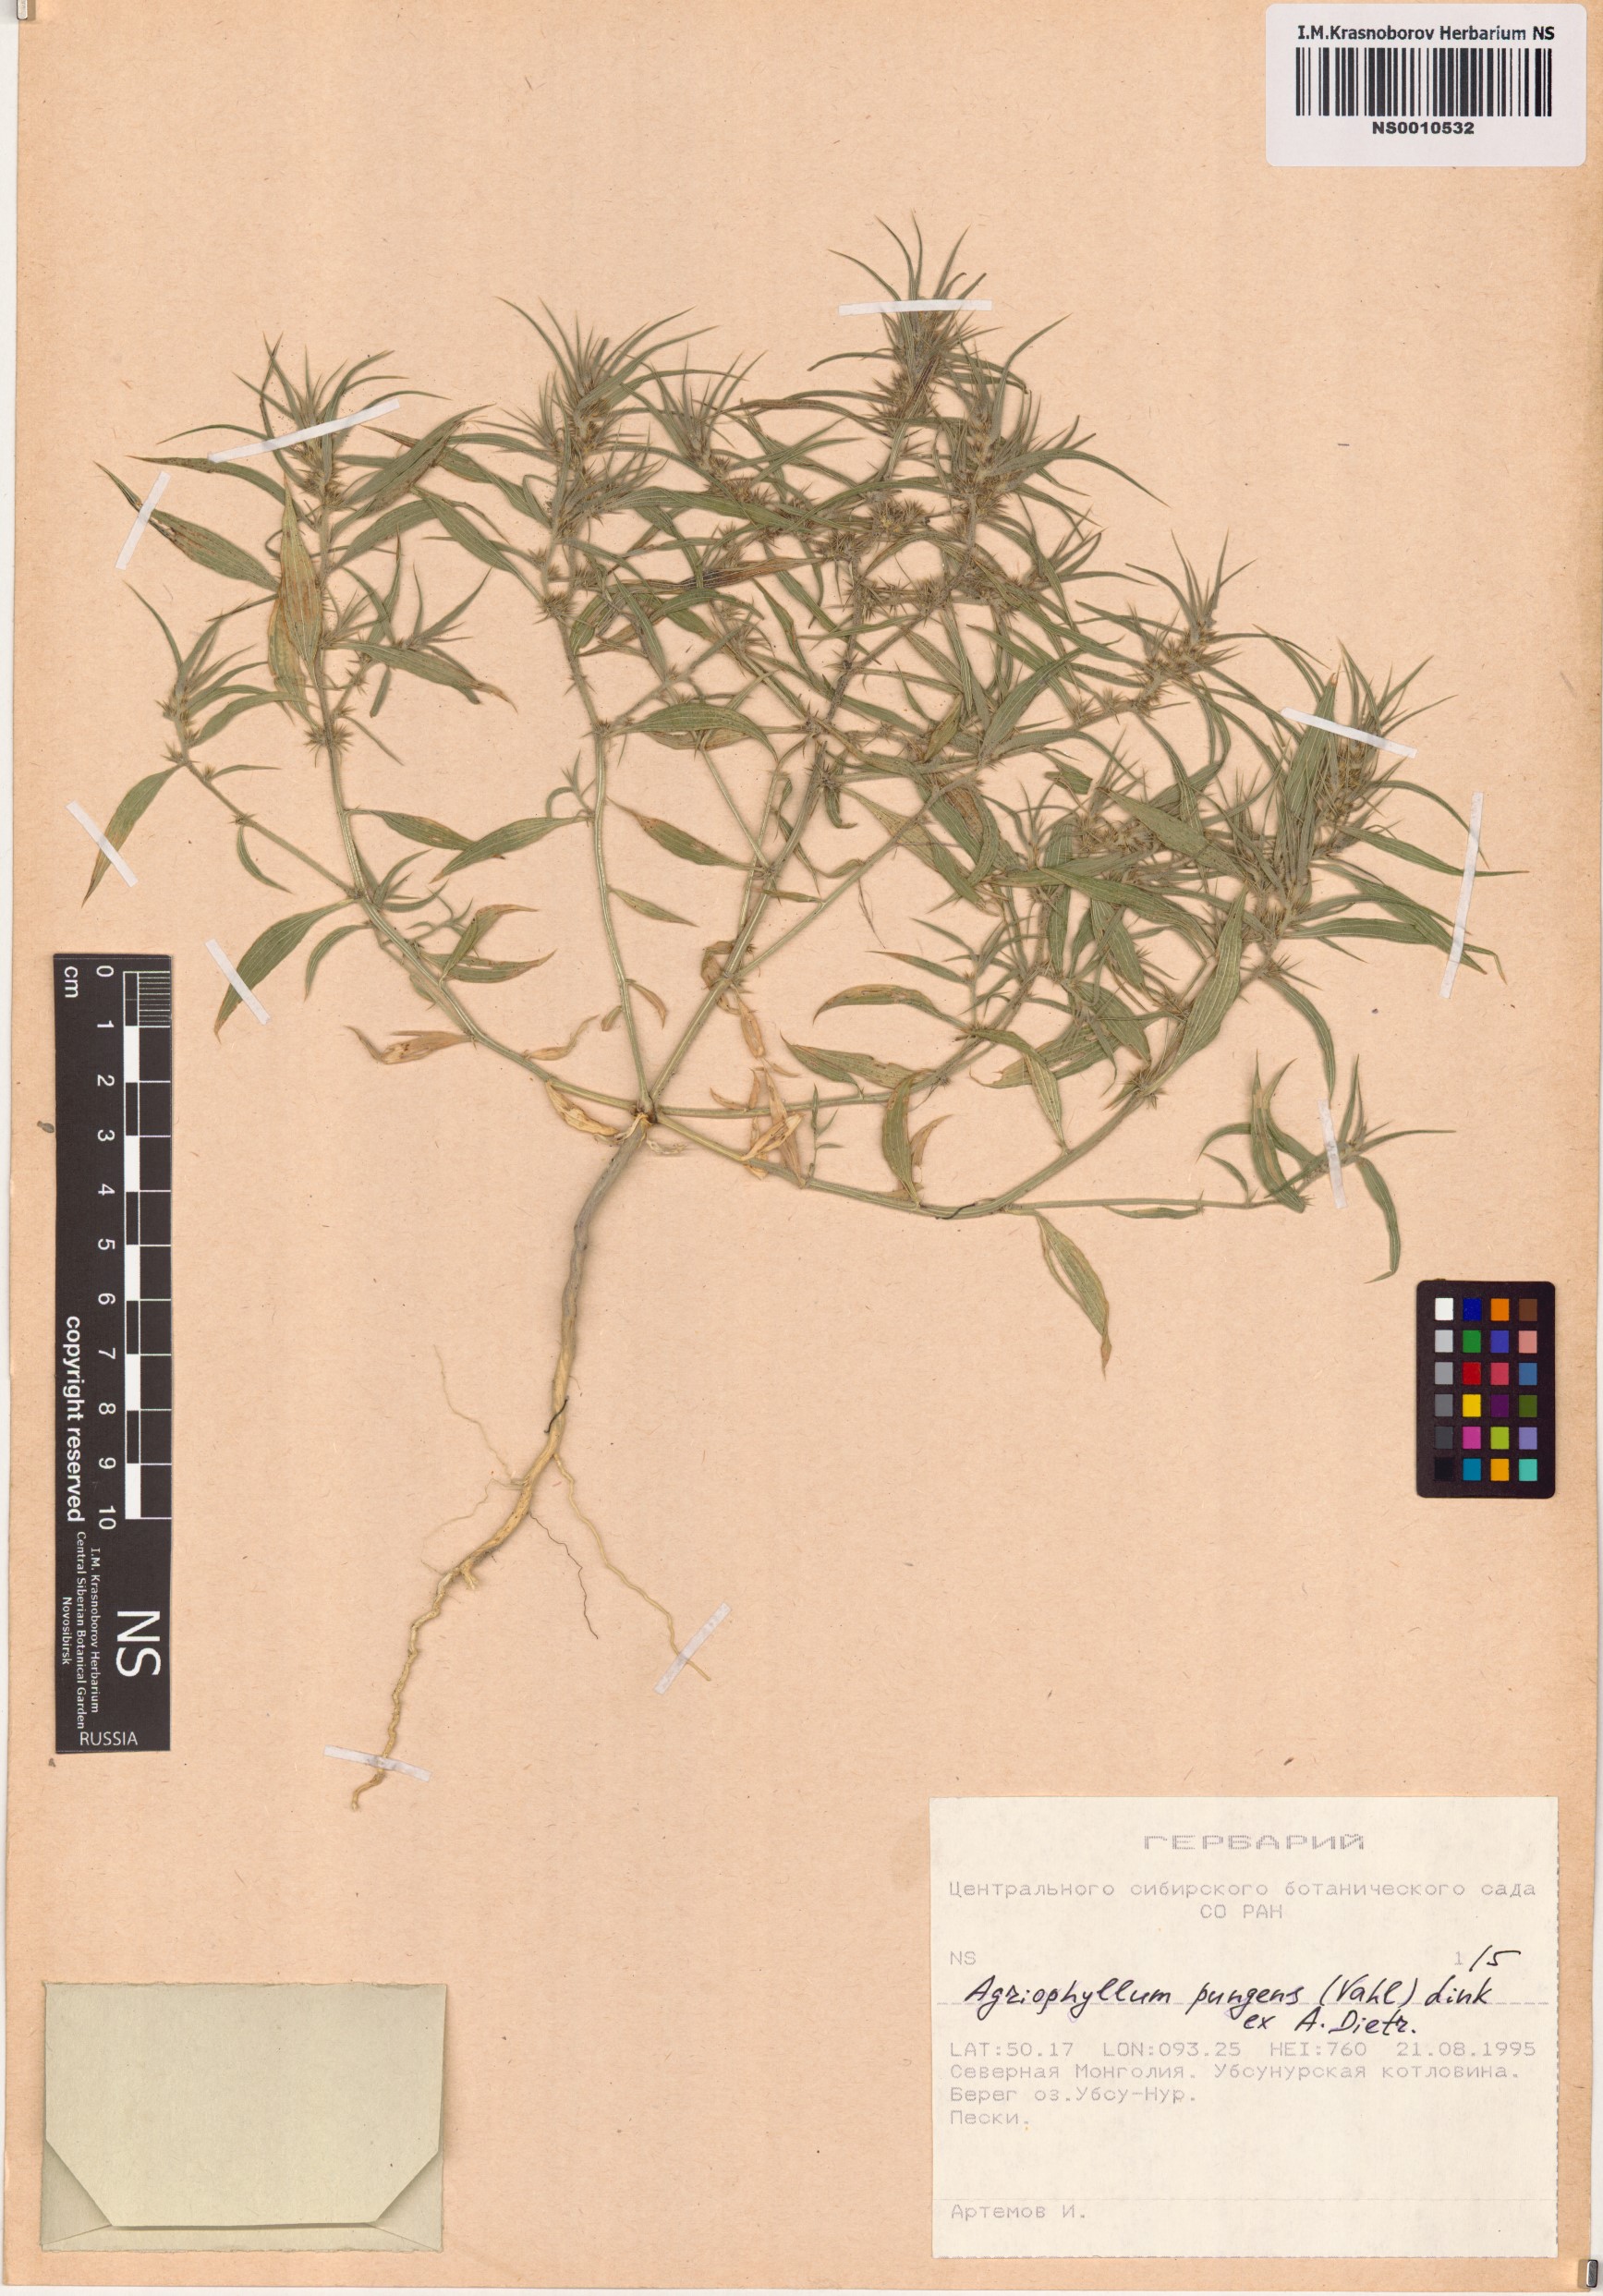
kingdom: Plantae
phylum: Tracheophyta
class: Magnoliopsida
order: Caryophyllales
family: Amaranthaceae
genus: Agriophyllum
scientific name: Agriophyllum pungens
